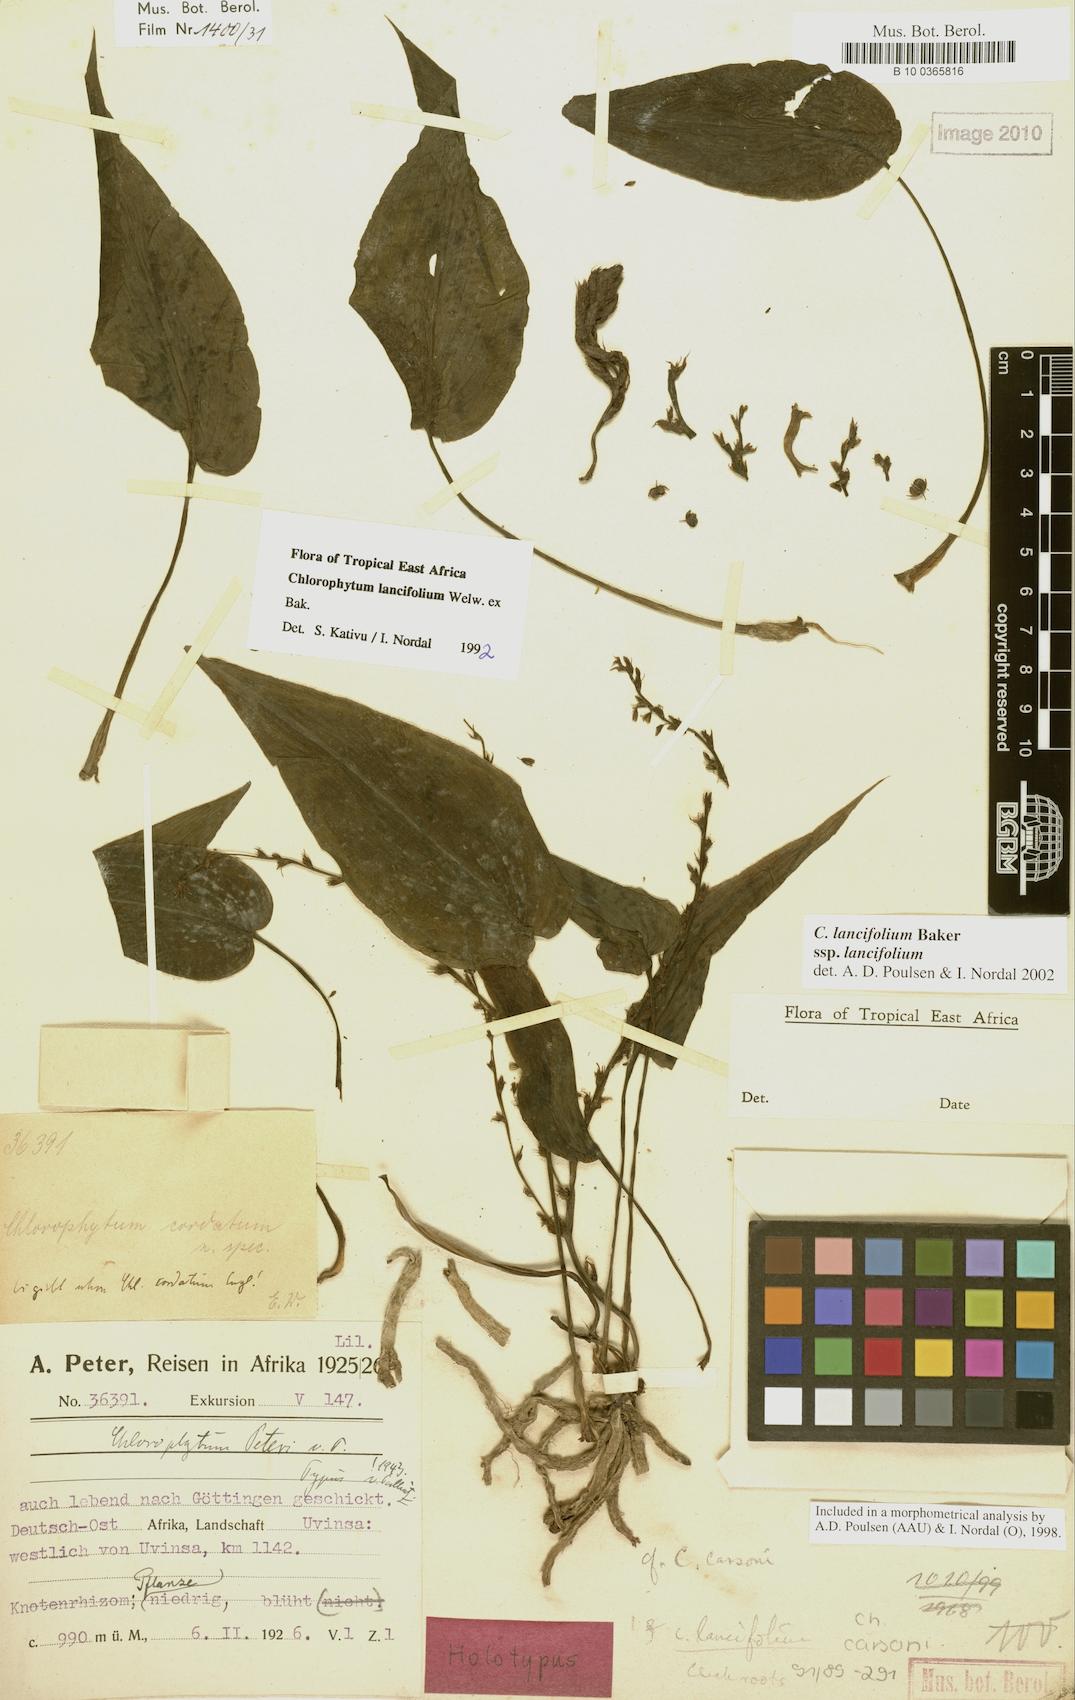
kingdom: Plantae
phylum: Tracheophyta
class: Liliopsida
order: Asparagales
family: Asparagaceae
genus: Chlorophytum
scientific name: Chlorophytum lancifolium
